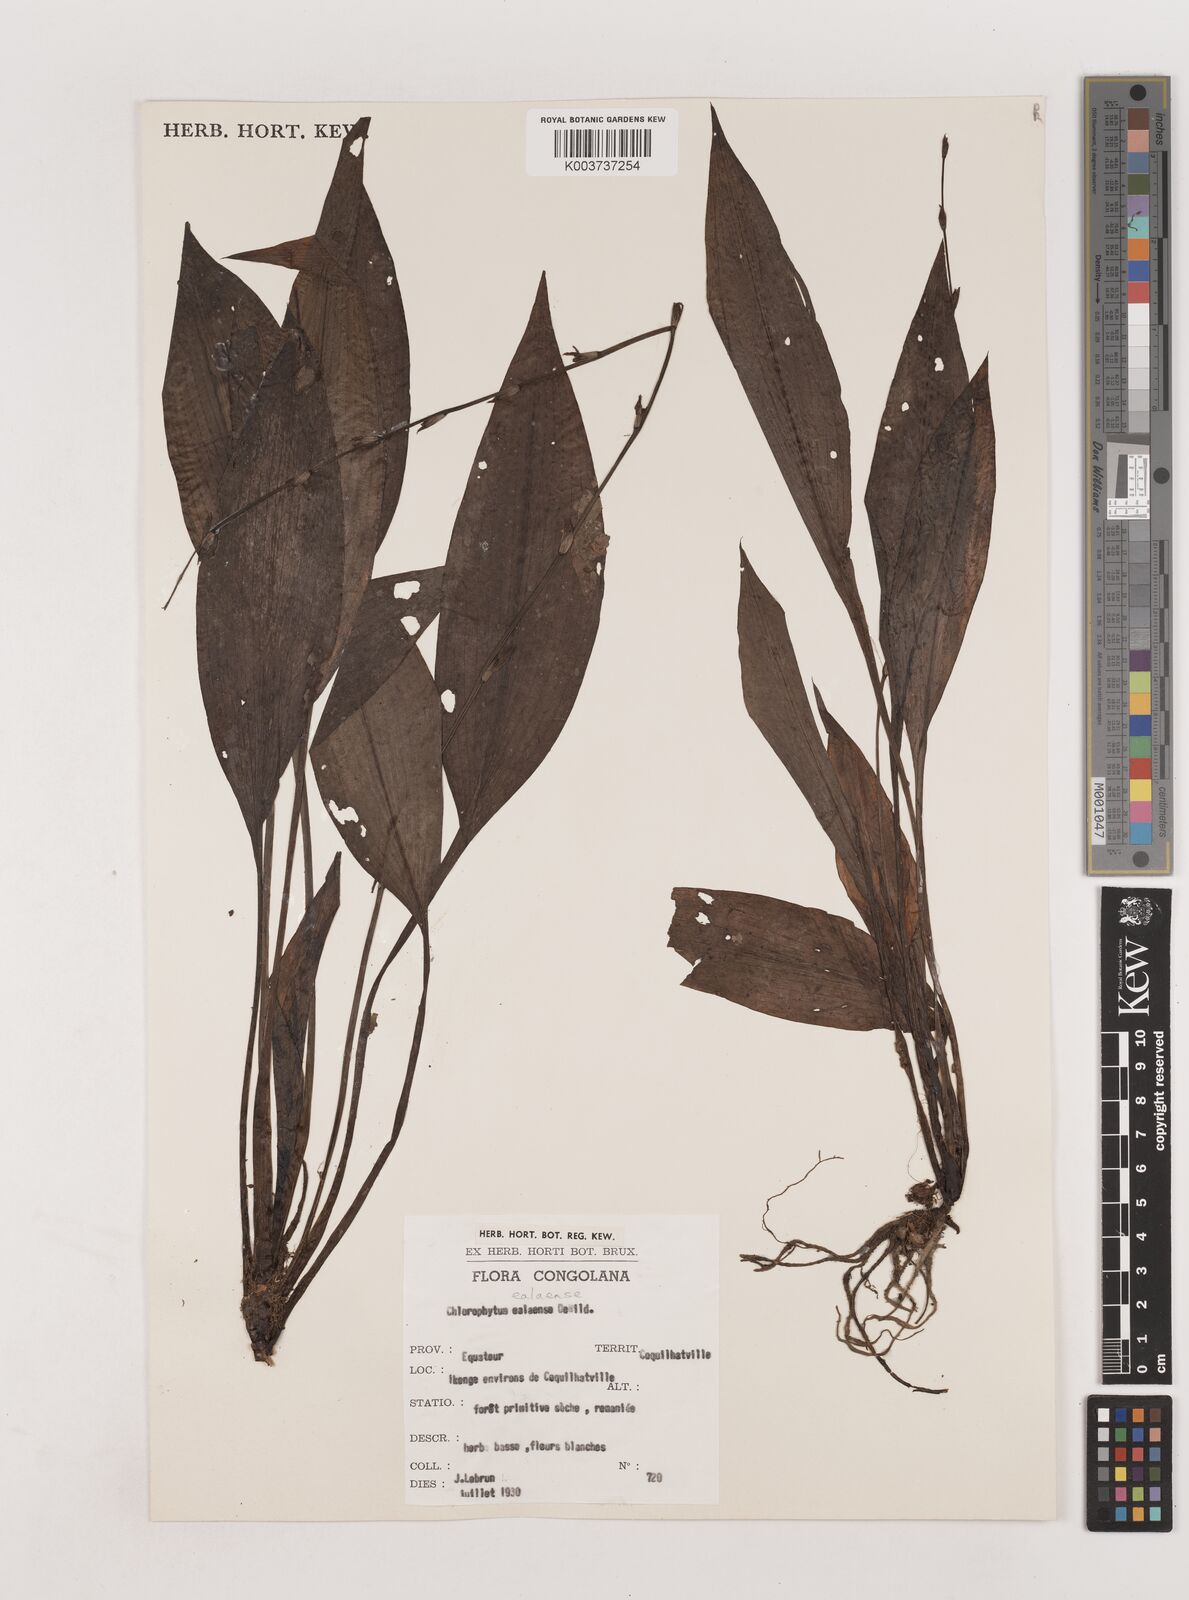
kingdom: Plantae
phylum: Tracheophyta
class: Liliopsida
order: Asparagales
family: Asparagaceae
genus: Chlorophytum
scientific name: Chlorophytum comosum
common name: Spider plant
